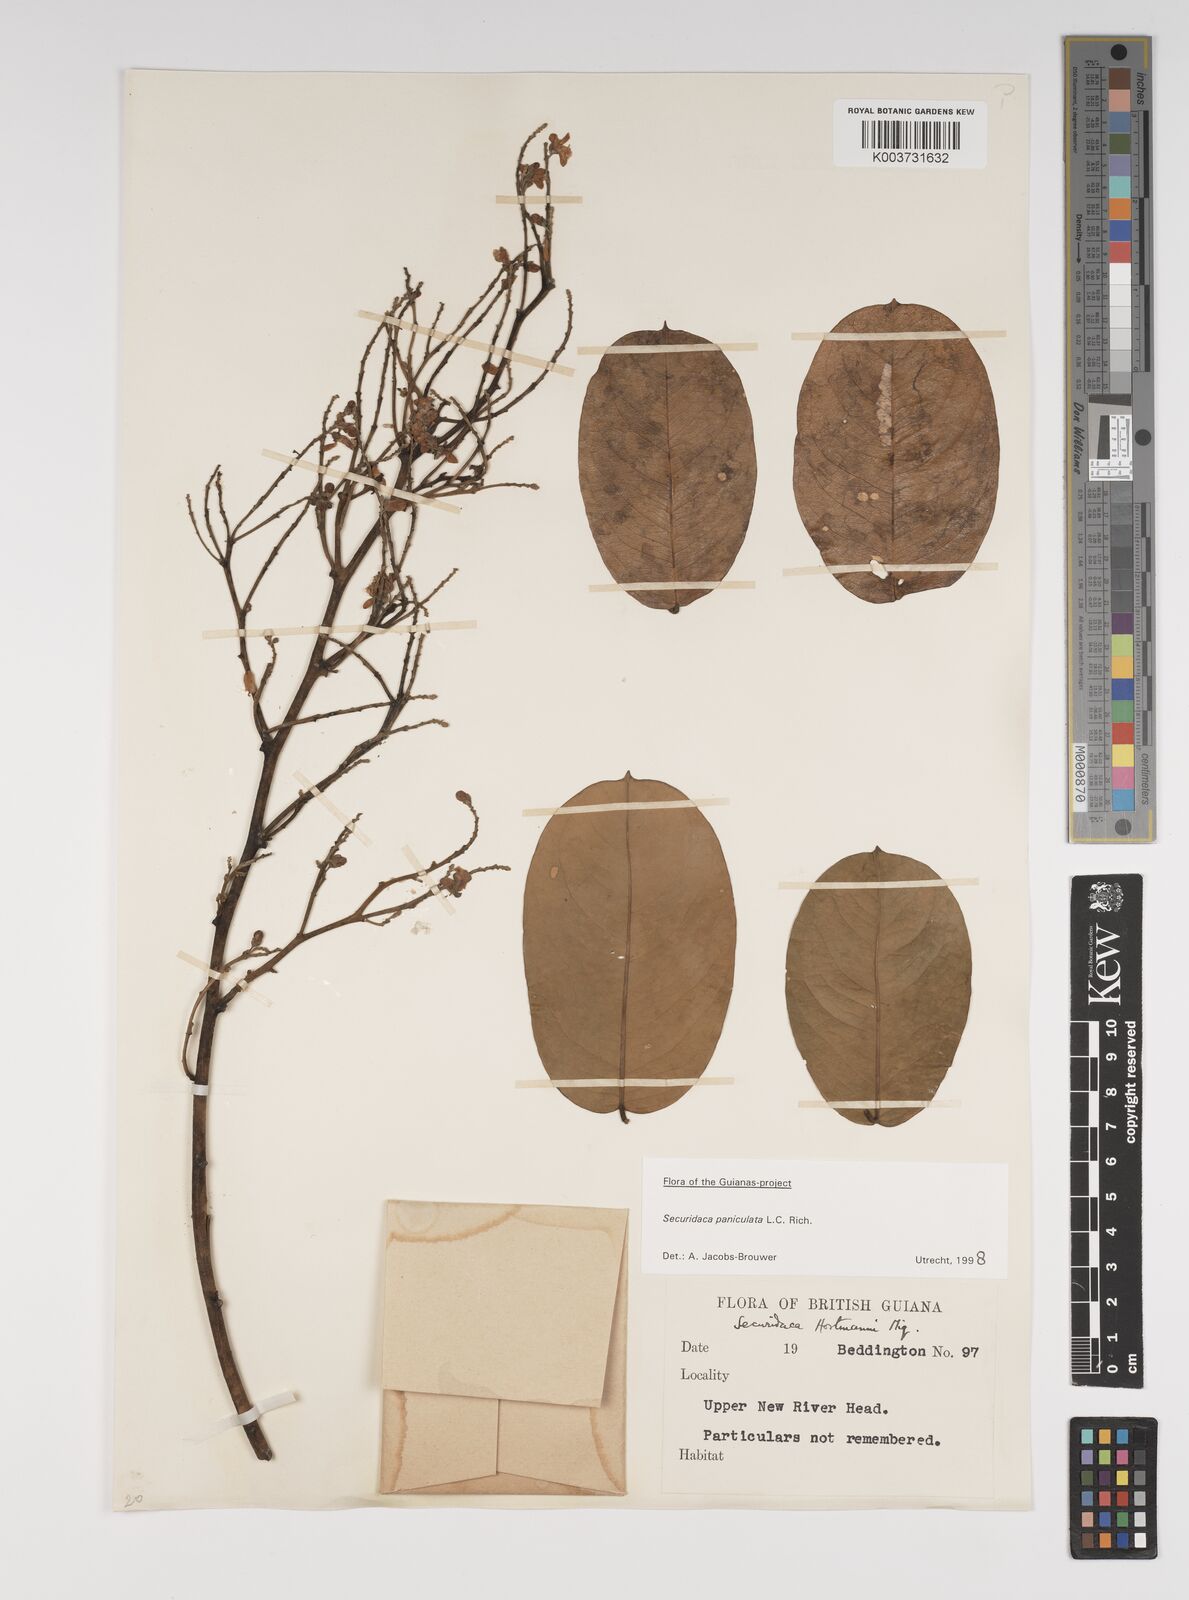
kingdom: Plantae
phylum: Tracheophyta
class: Magnoliopsida
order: Fabales
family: Polygalaceae
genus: Securidaca
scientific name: Securidaca paniculata
